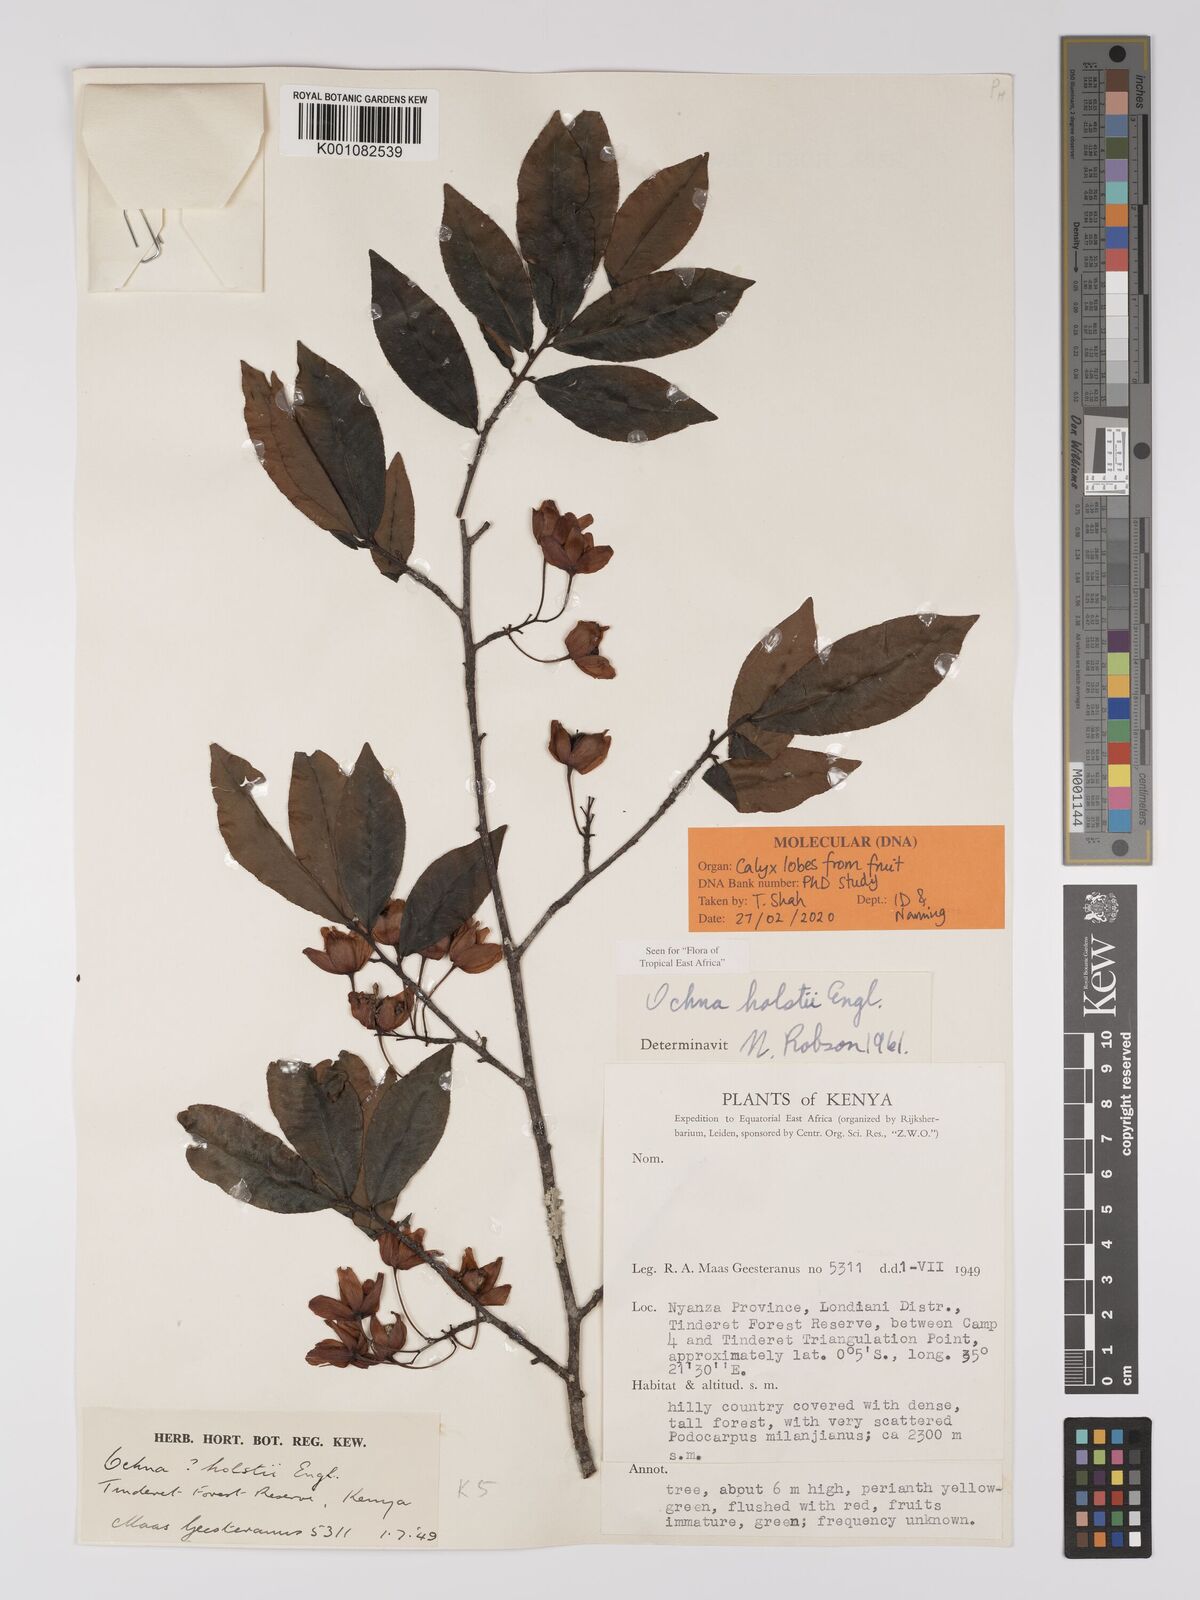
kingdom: Plantae
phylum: Tracheophyta
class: Magnoliopsida
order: Malpighiales
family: Ochnaceae
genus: Ochna
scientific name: Ochna holstii
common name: Red ironwood
